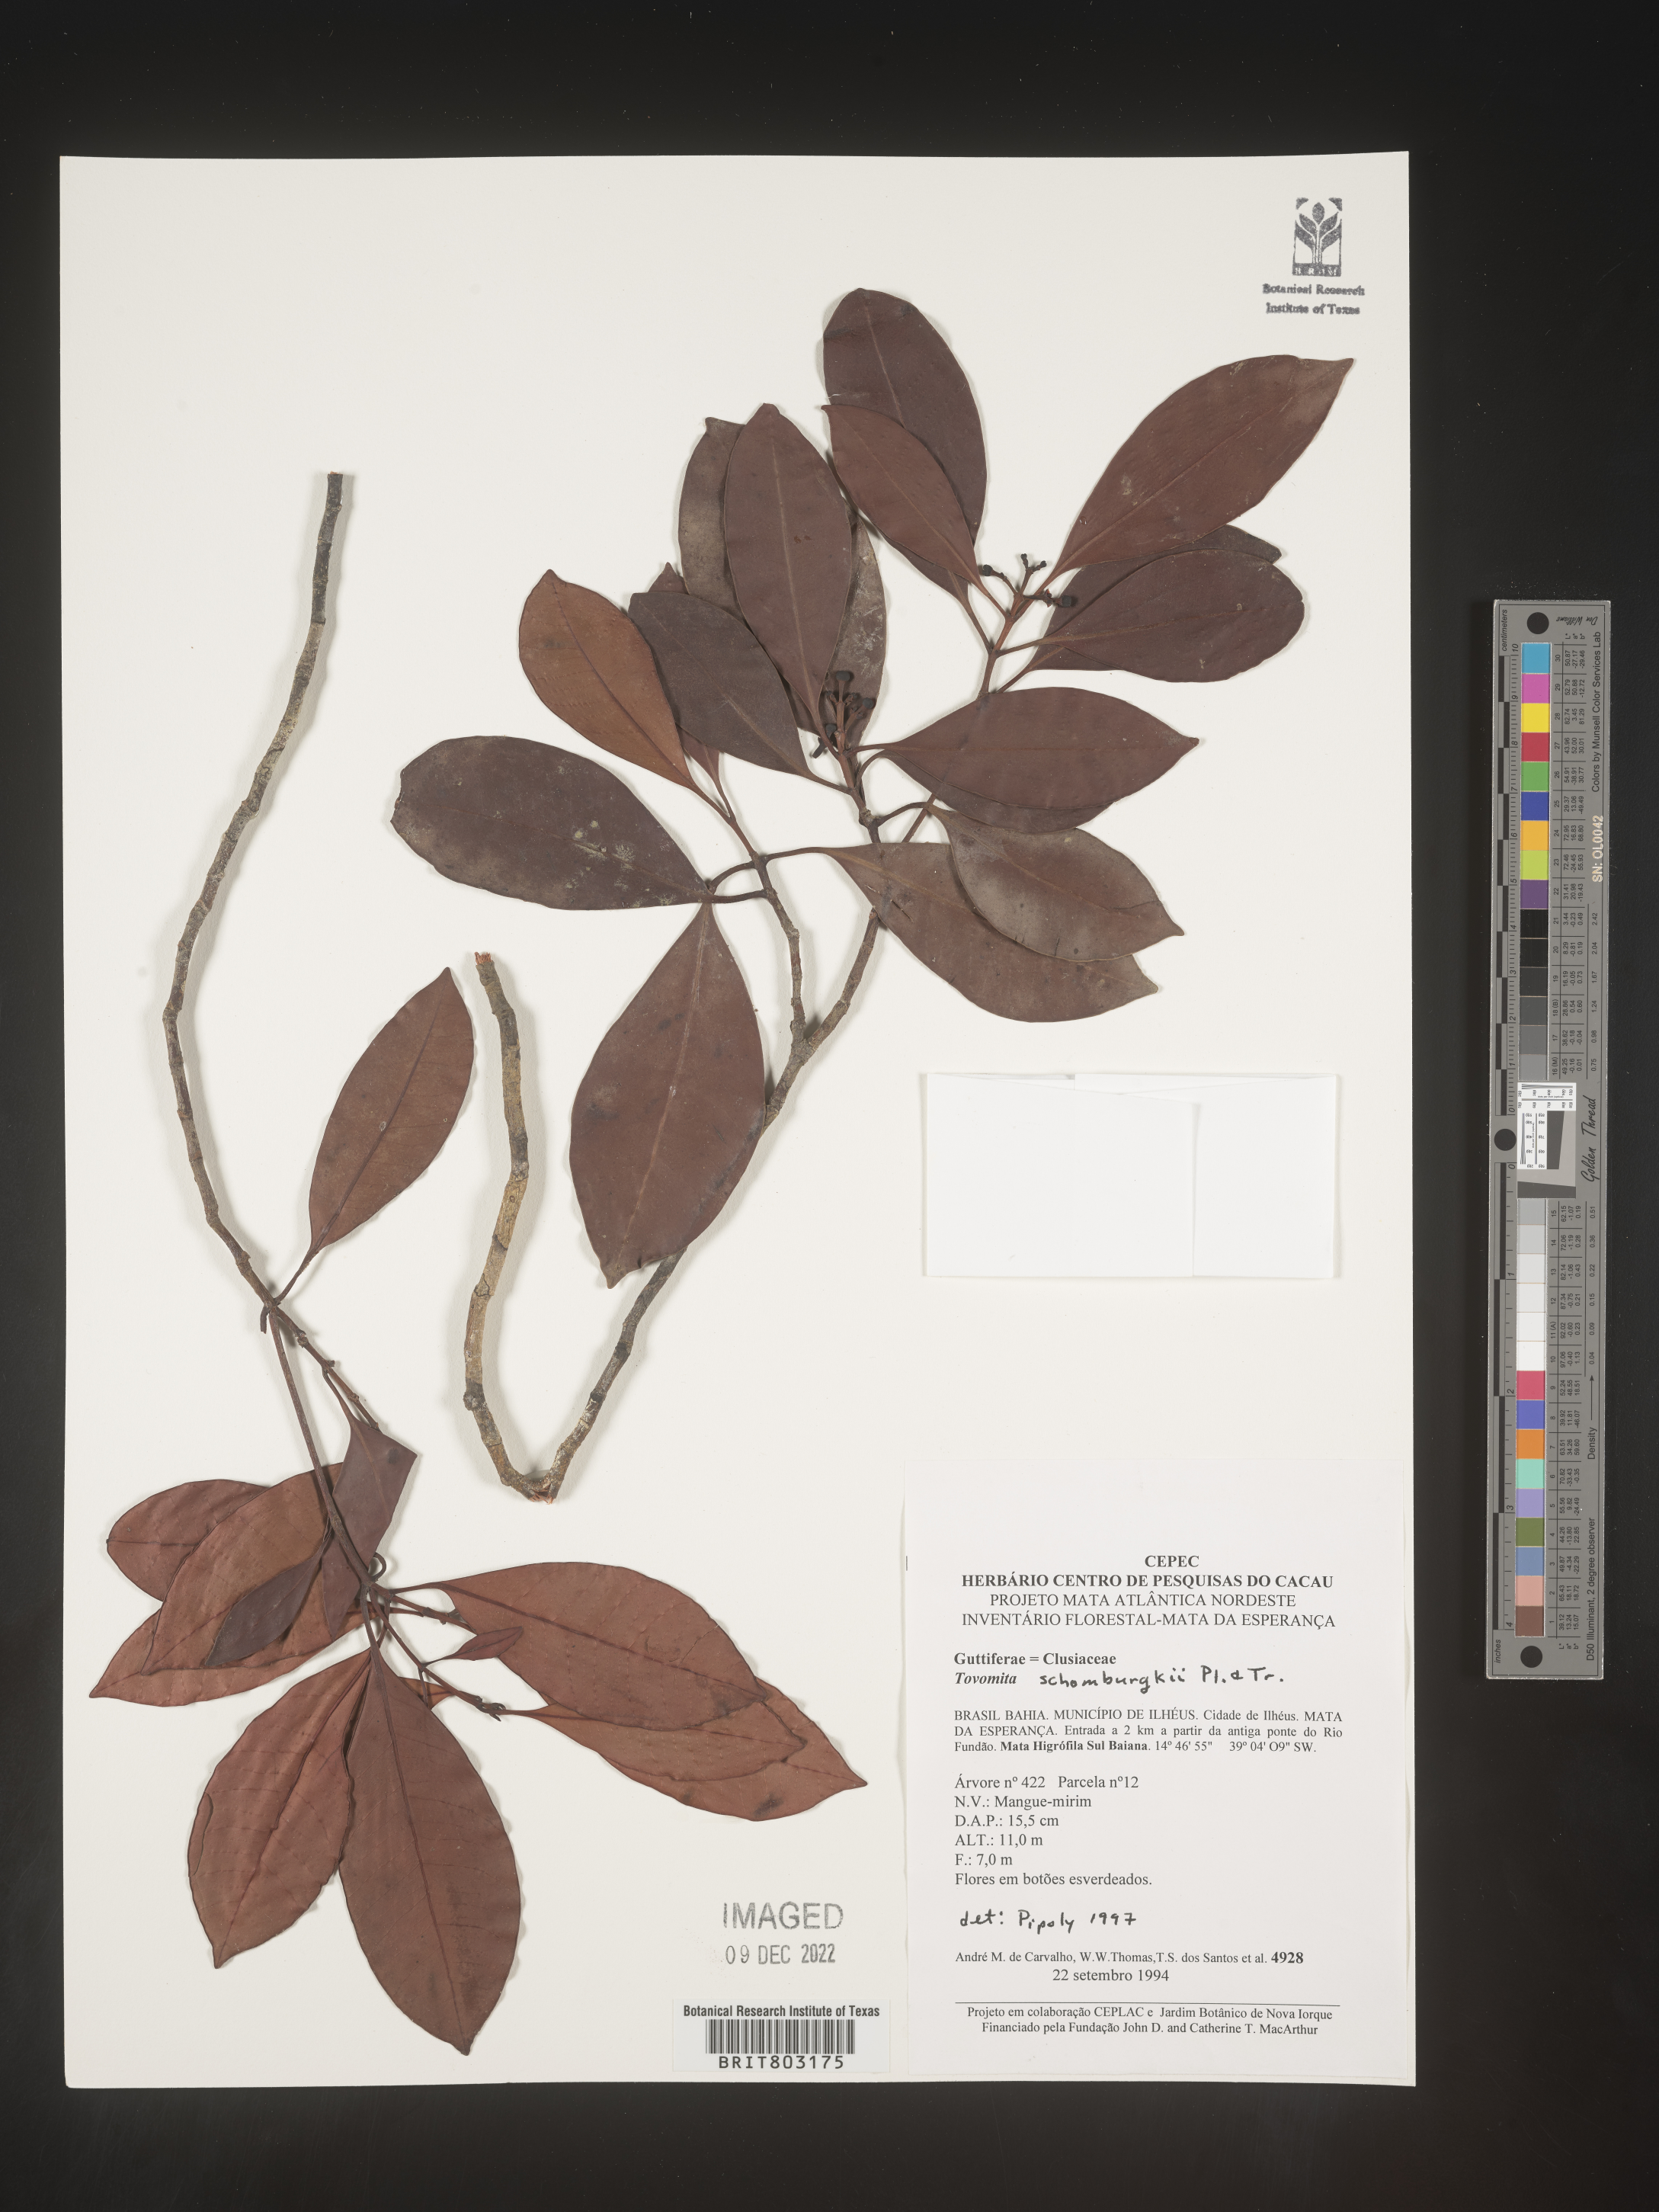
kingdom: Plantae
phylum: Tracheophyta
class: Magnoliopsida
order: Malpighiales
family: Clusiaceae
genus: Tovomita
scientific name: Tovomita
